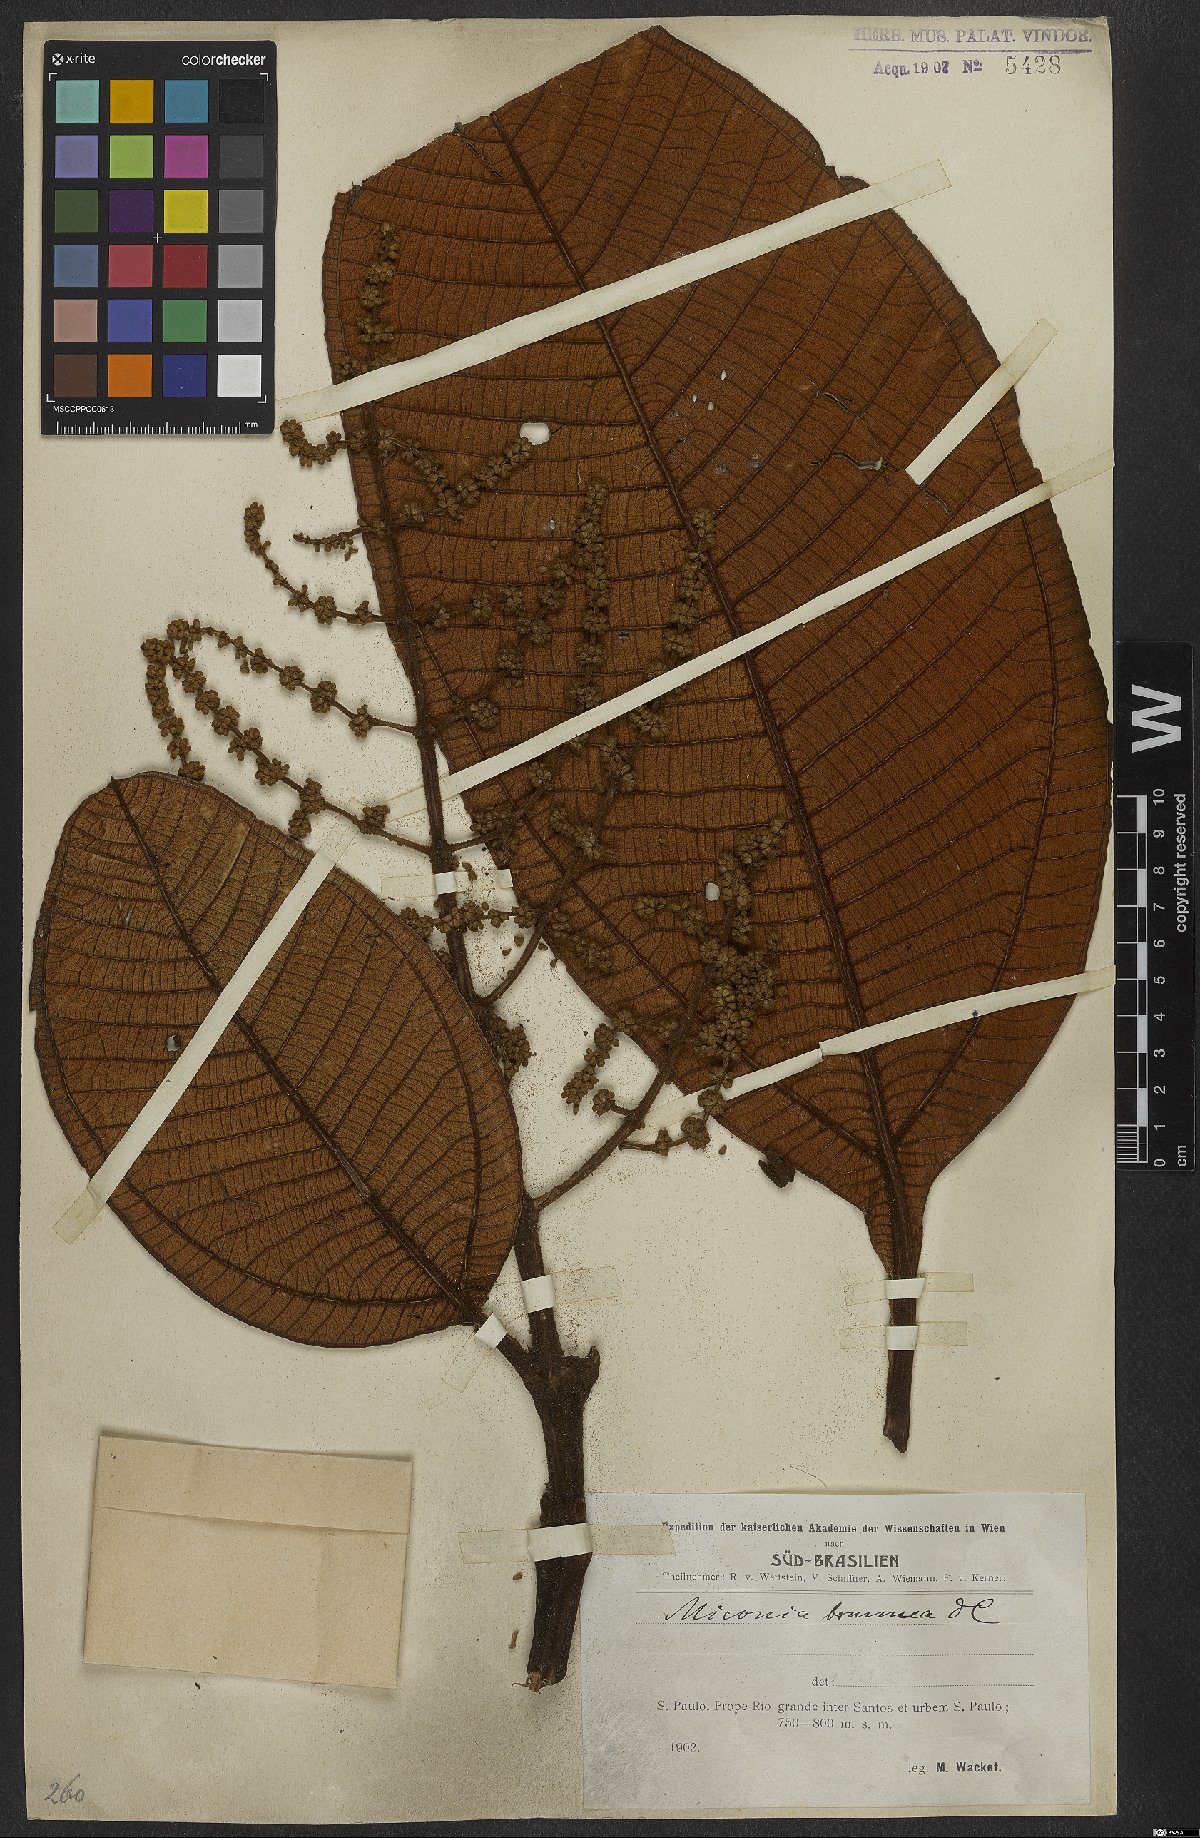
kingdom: Plantae
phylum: Tracheophyta
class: Magnoliopsida
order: Myrtales
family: Melastomataceae
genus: Miconia
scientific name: Miconia brunnea
